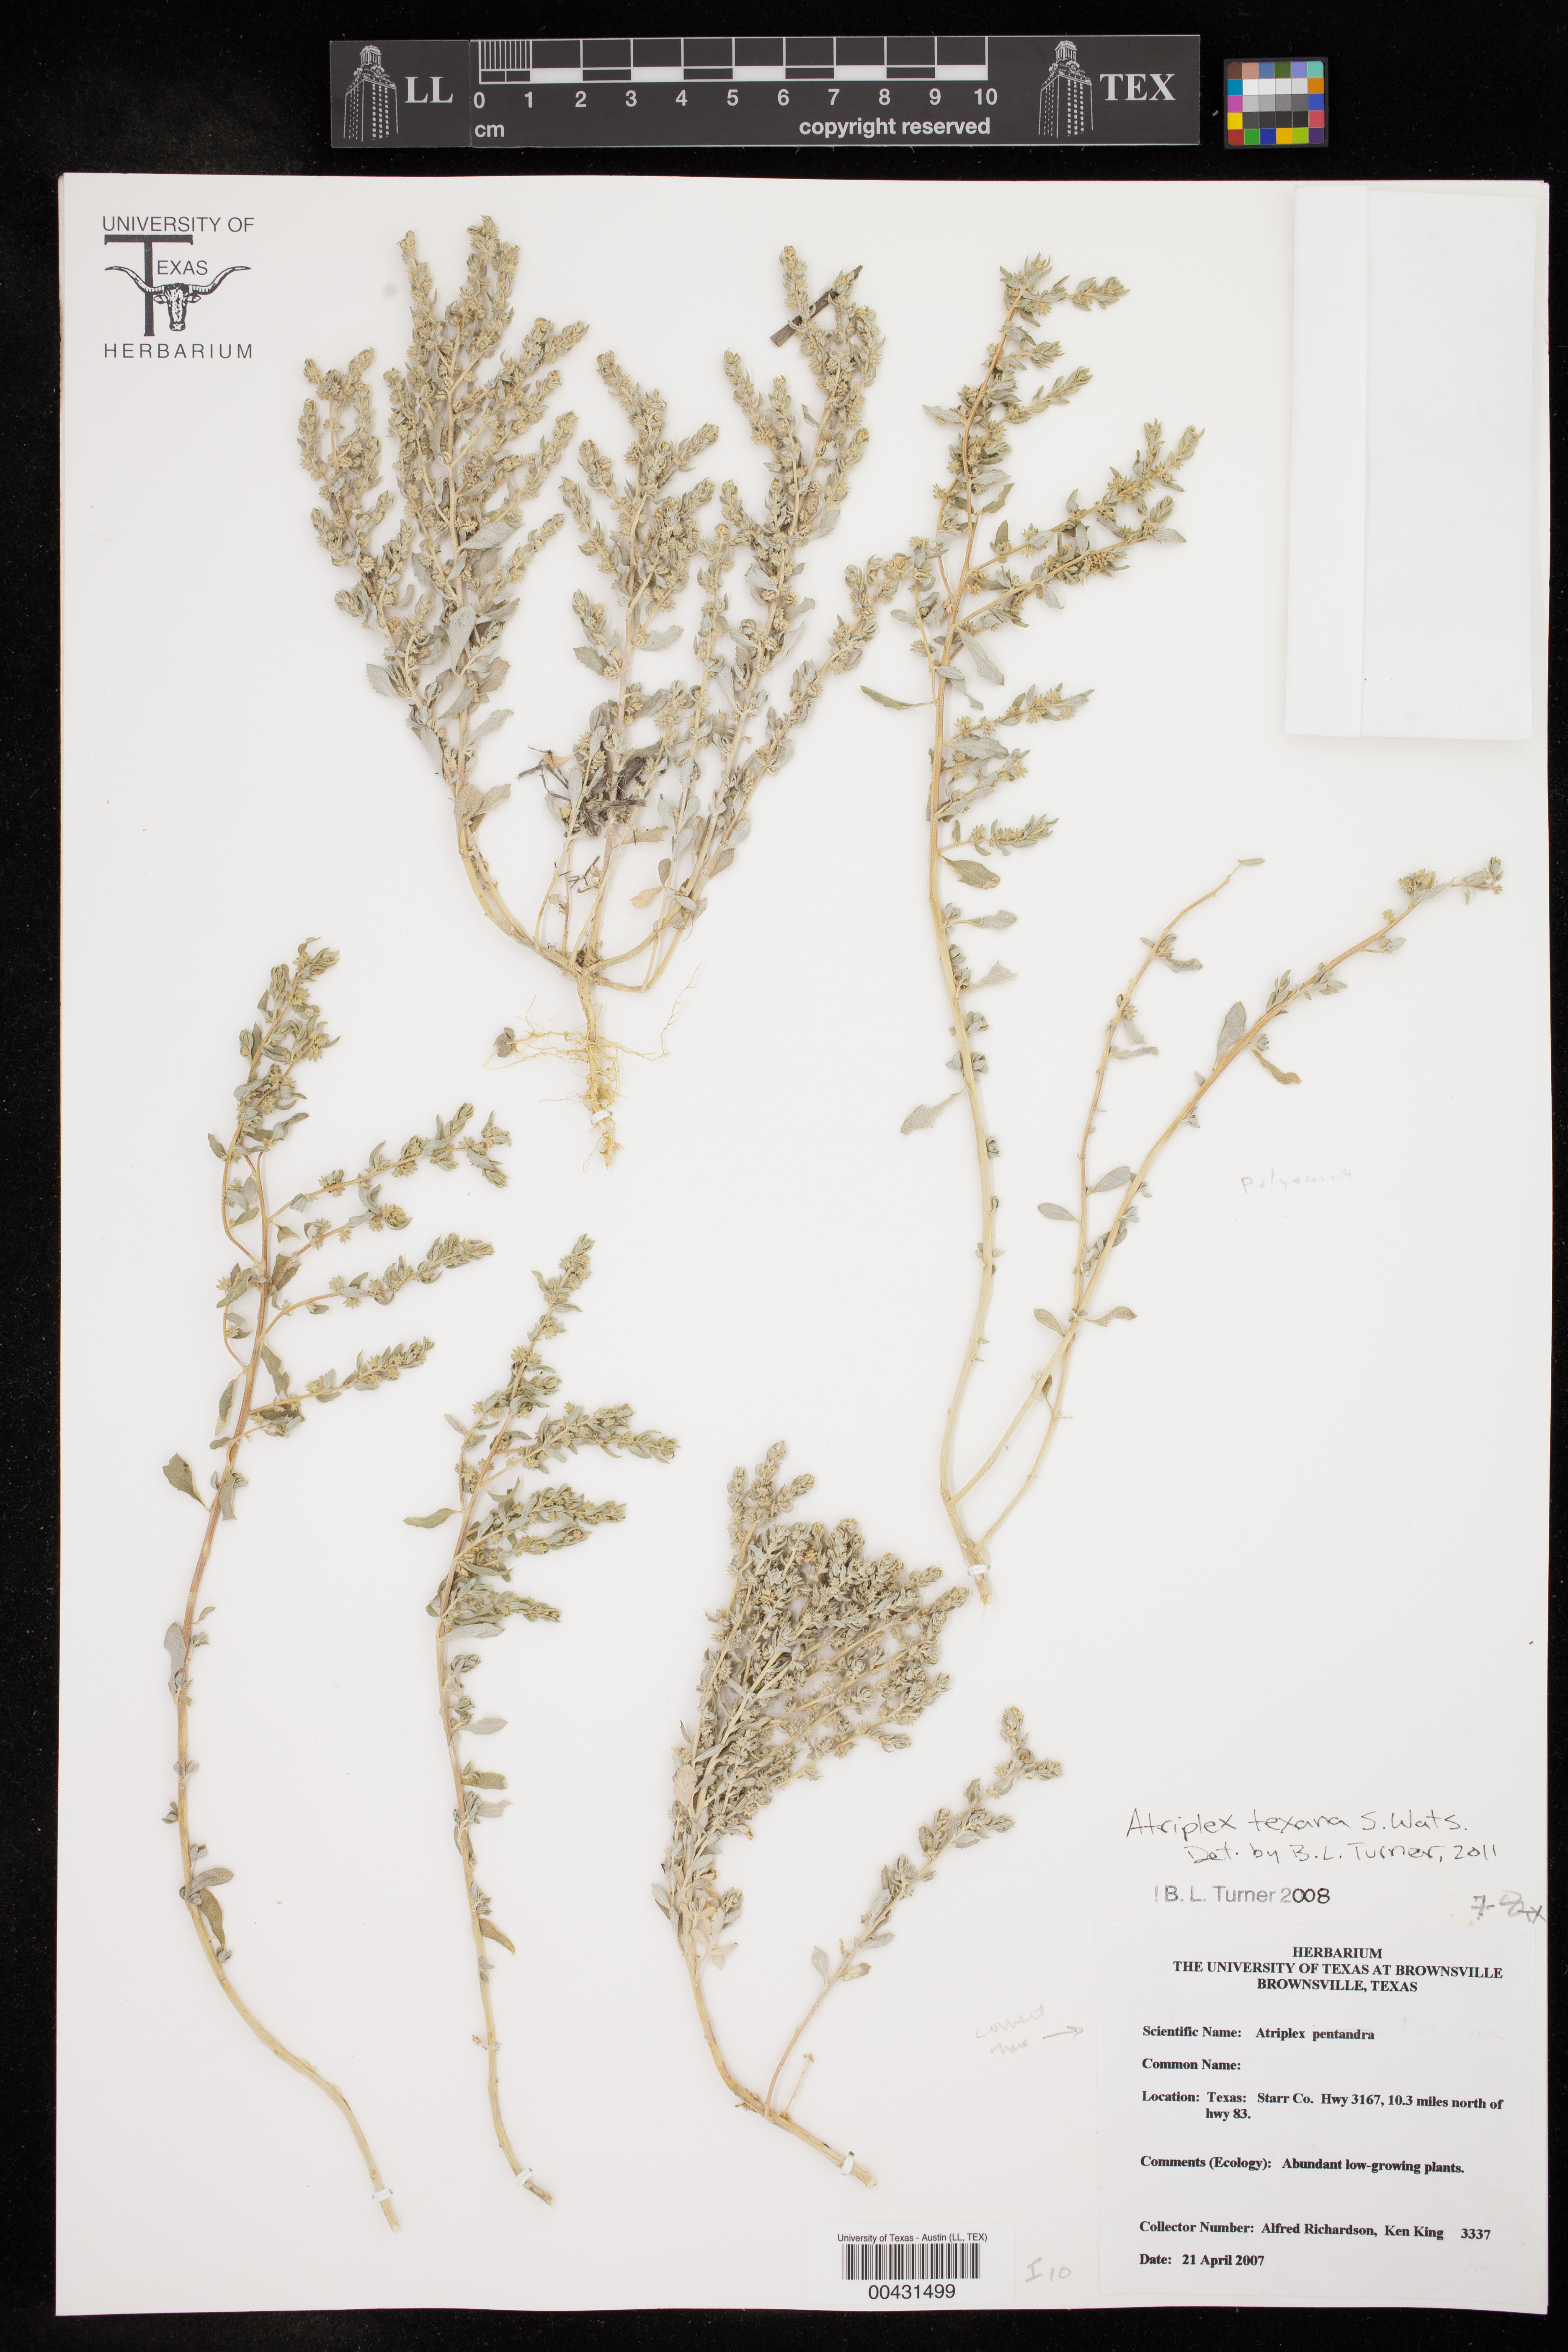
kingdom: Plantae
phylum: Tracheophyta
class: Magnoliopsida
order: Caryophyllales
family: Amaranthaceae
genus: Atriplex
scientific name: Atriplex texana
